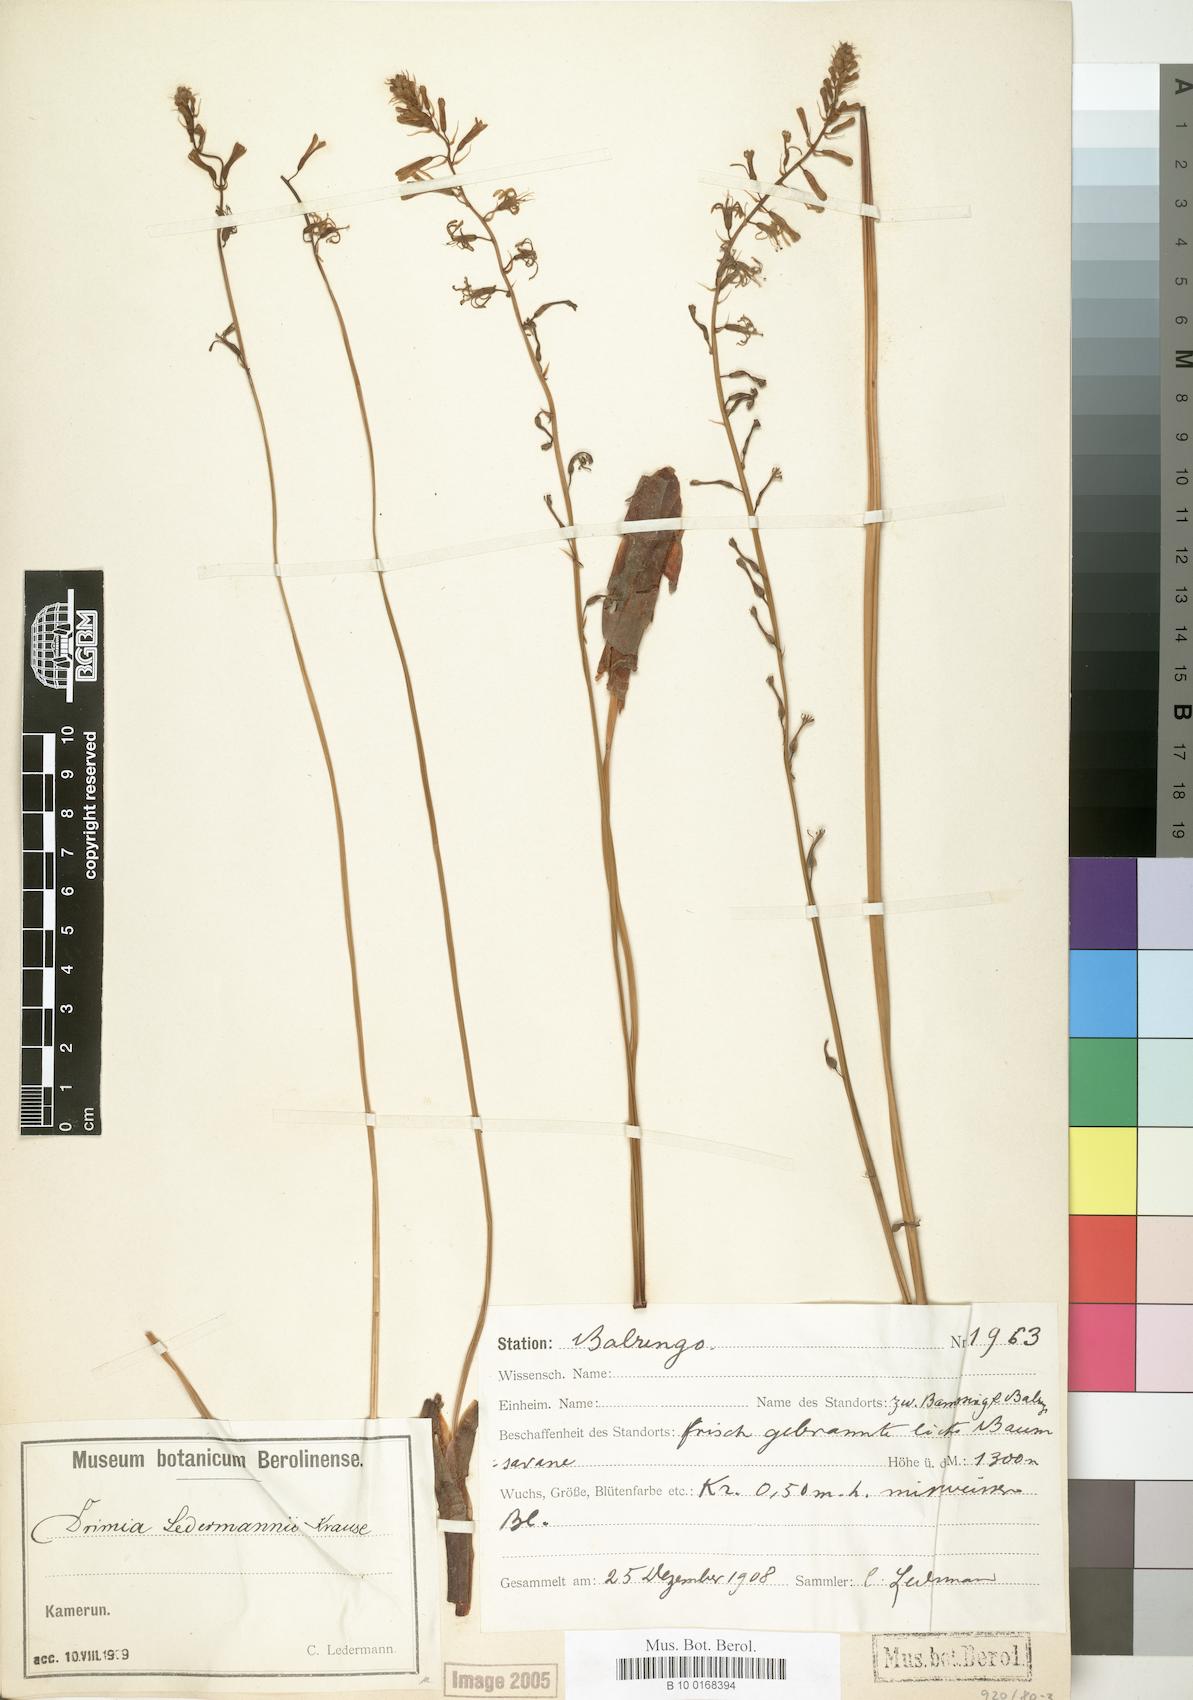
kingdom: Plantae
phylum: Tracheophyta
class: Liliopsida
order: Asparagales
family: Asparagaceae
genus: Drimia
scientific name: Drimia ledermannii
